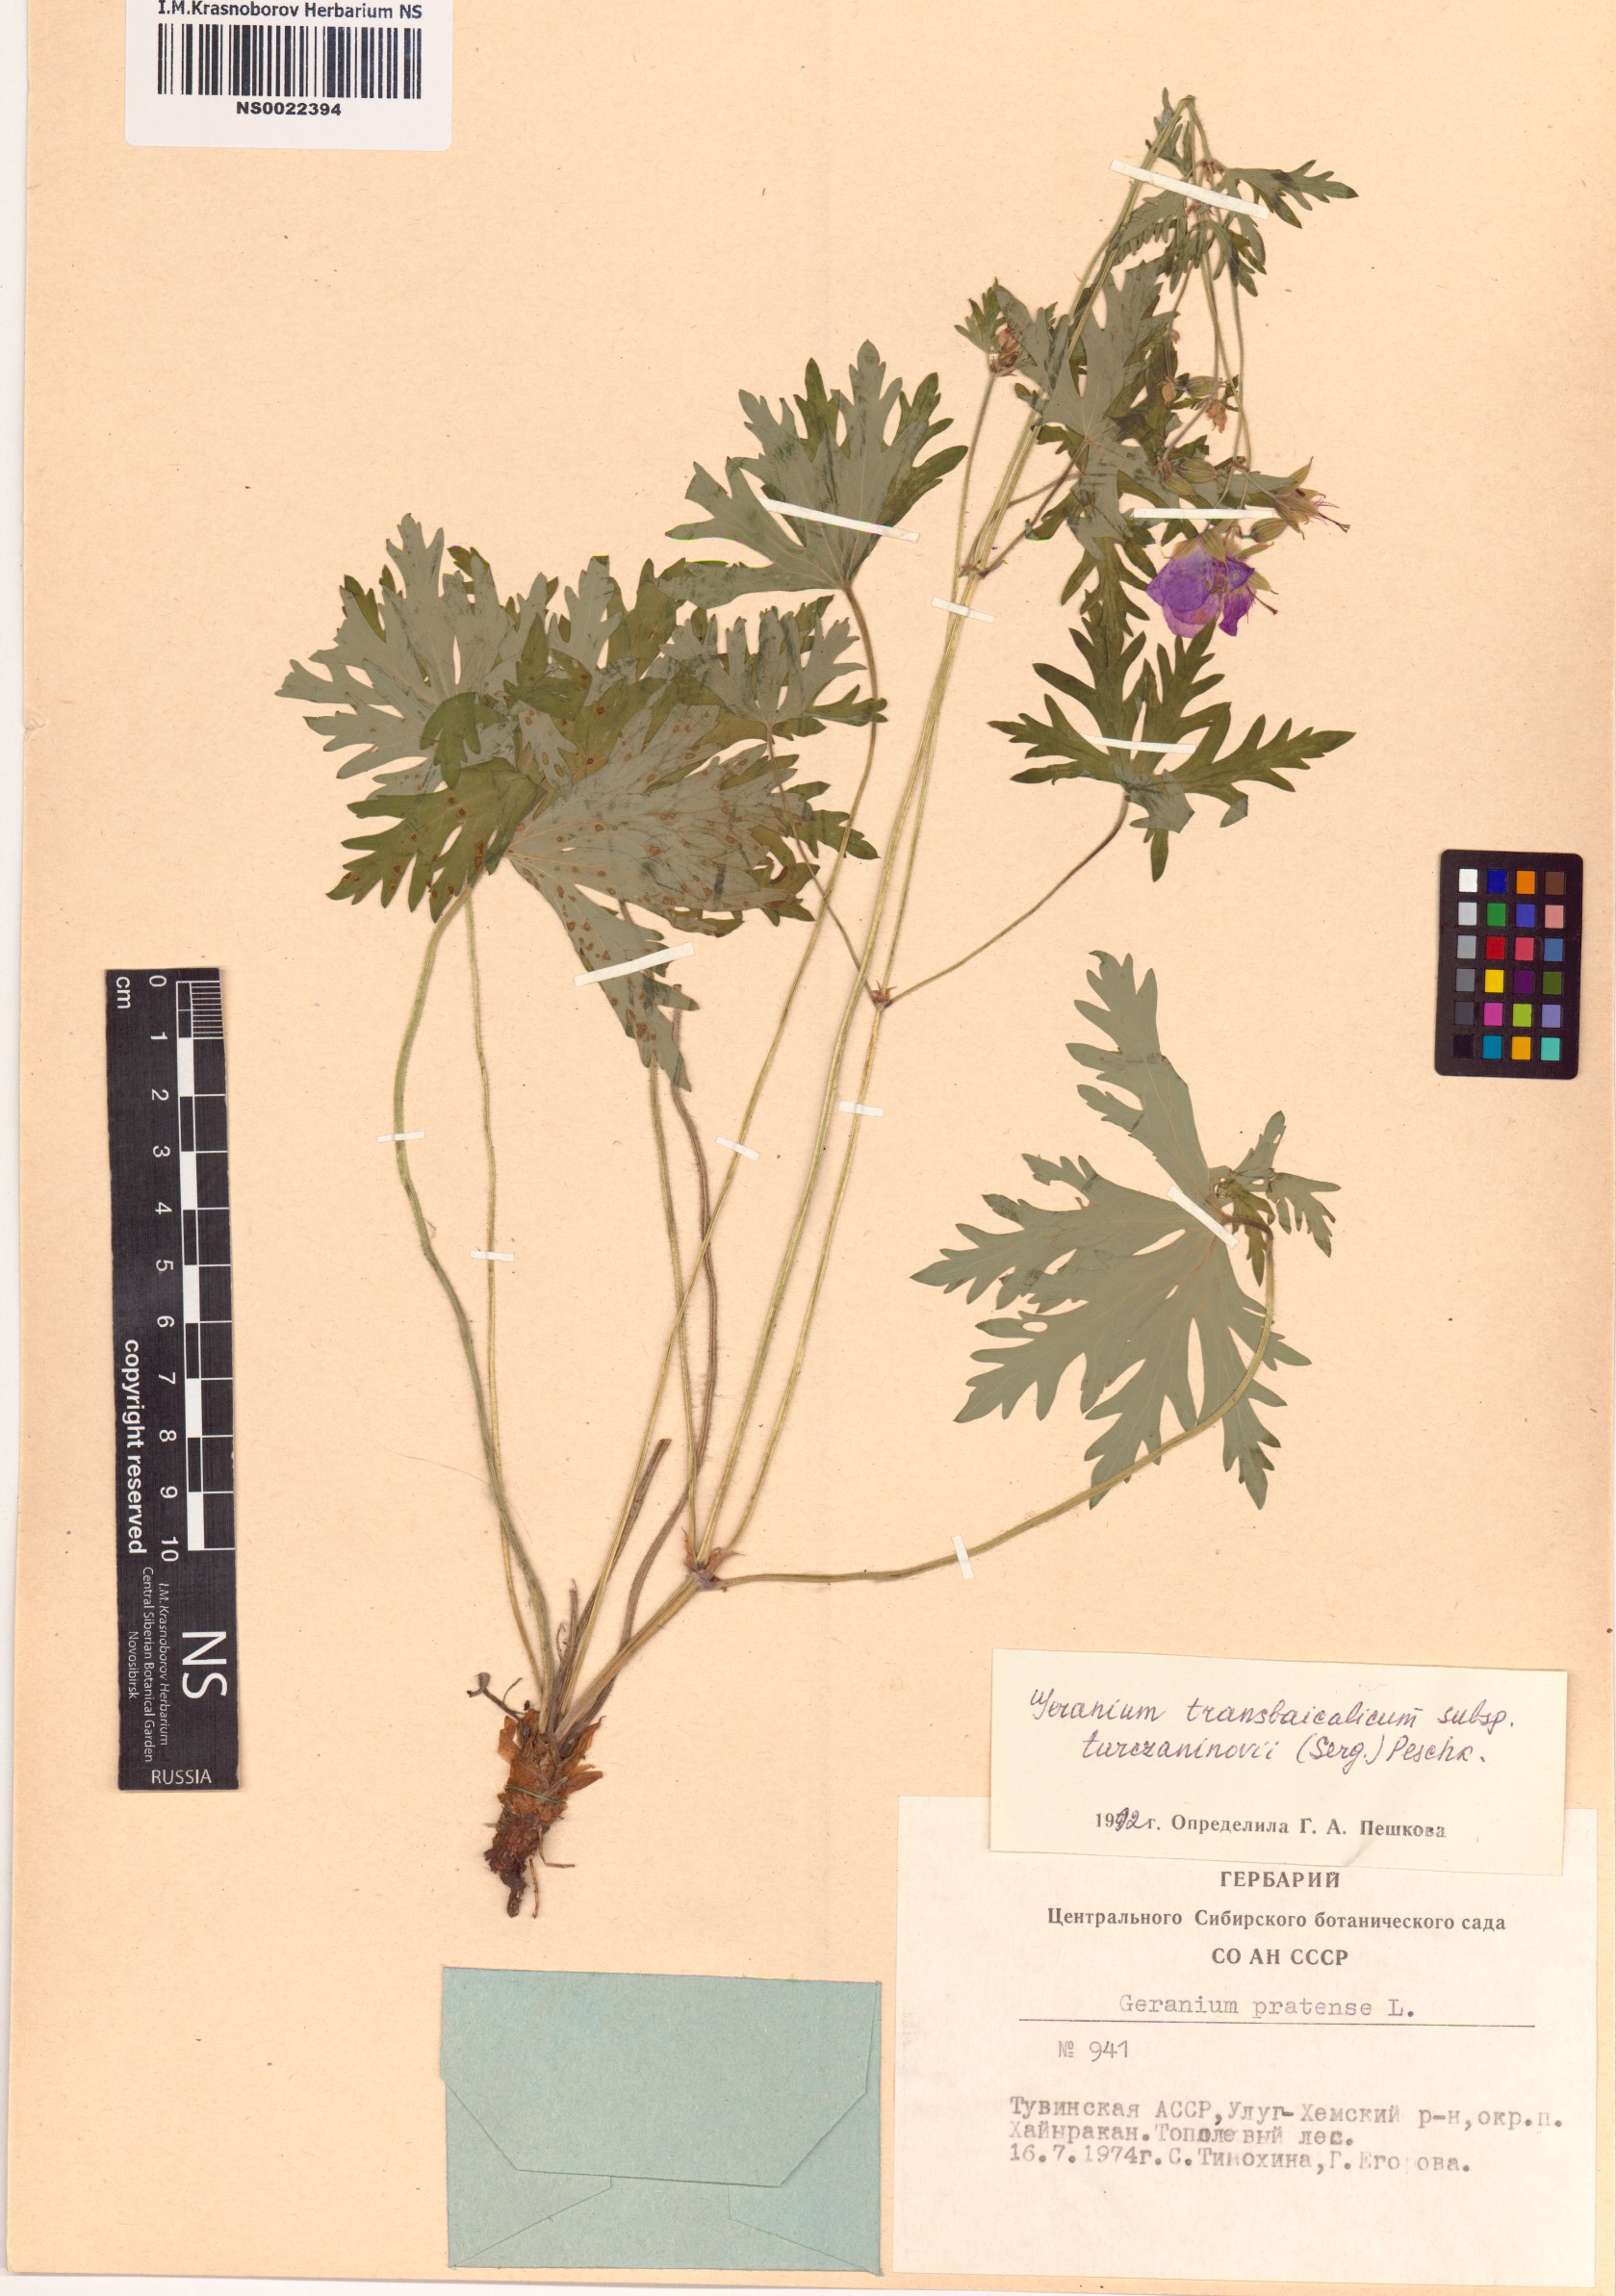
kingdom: Plantae
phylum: Tracheophyta
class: Magnoliopsida
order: Geraniales
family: Geraniaceae
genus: Geranium
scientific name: Geranium pratense
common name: Meadow crane's-bill
